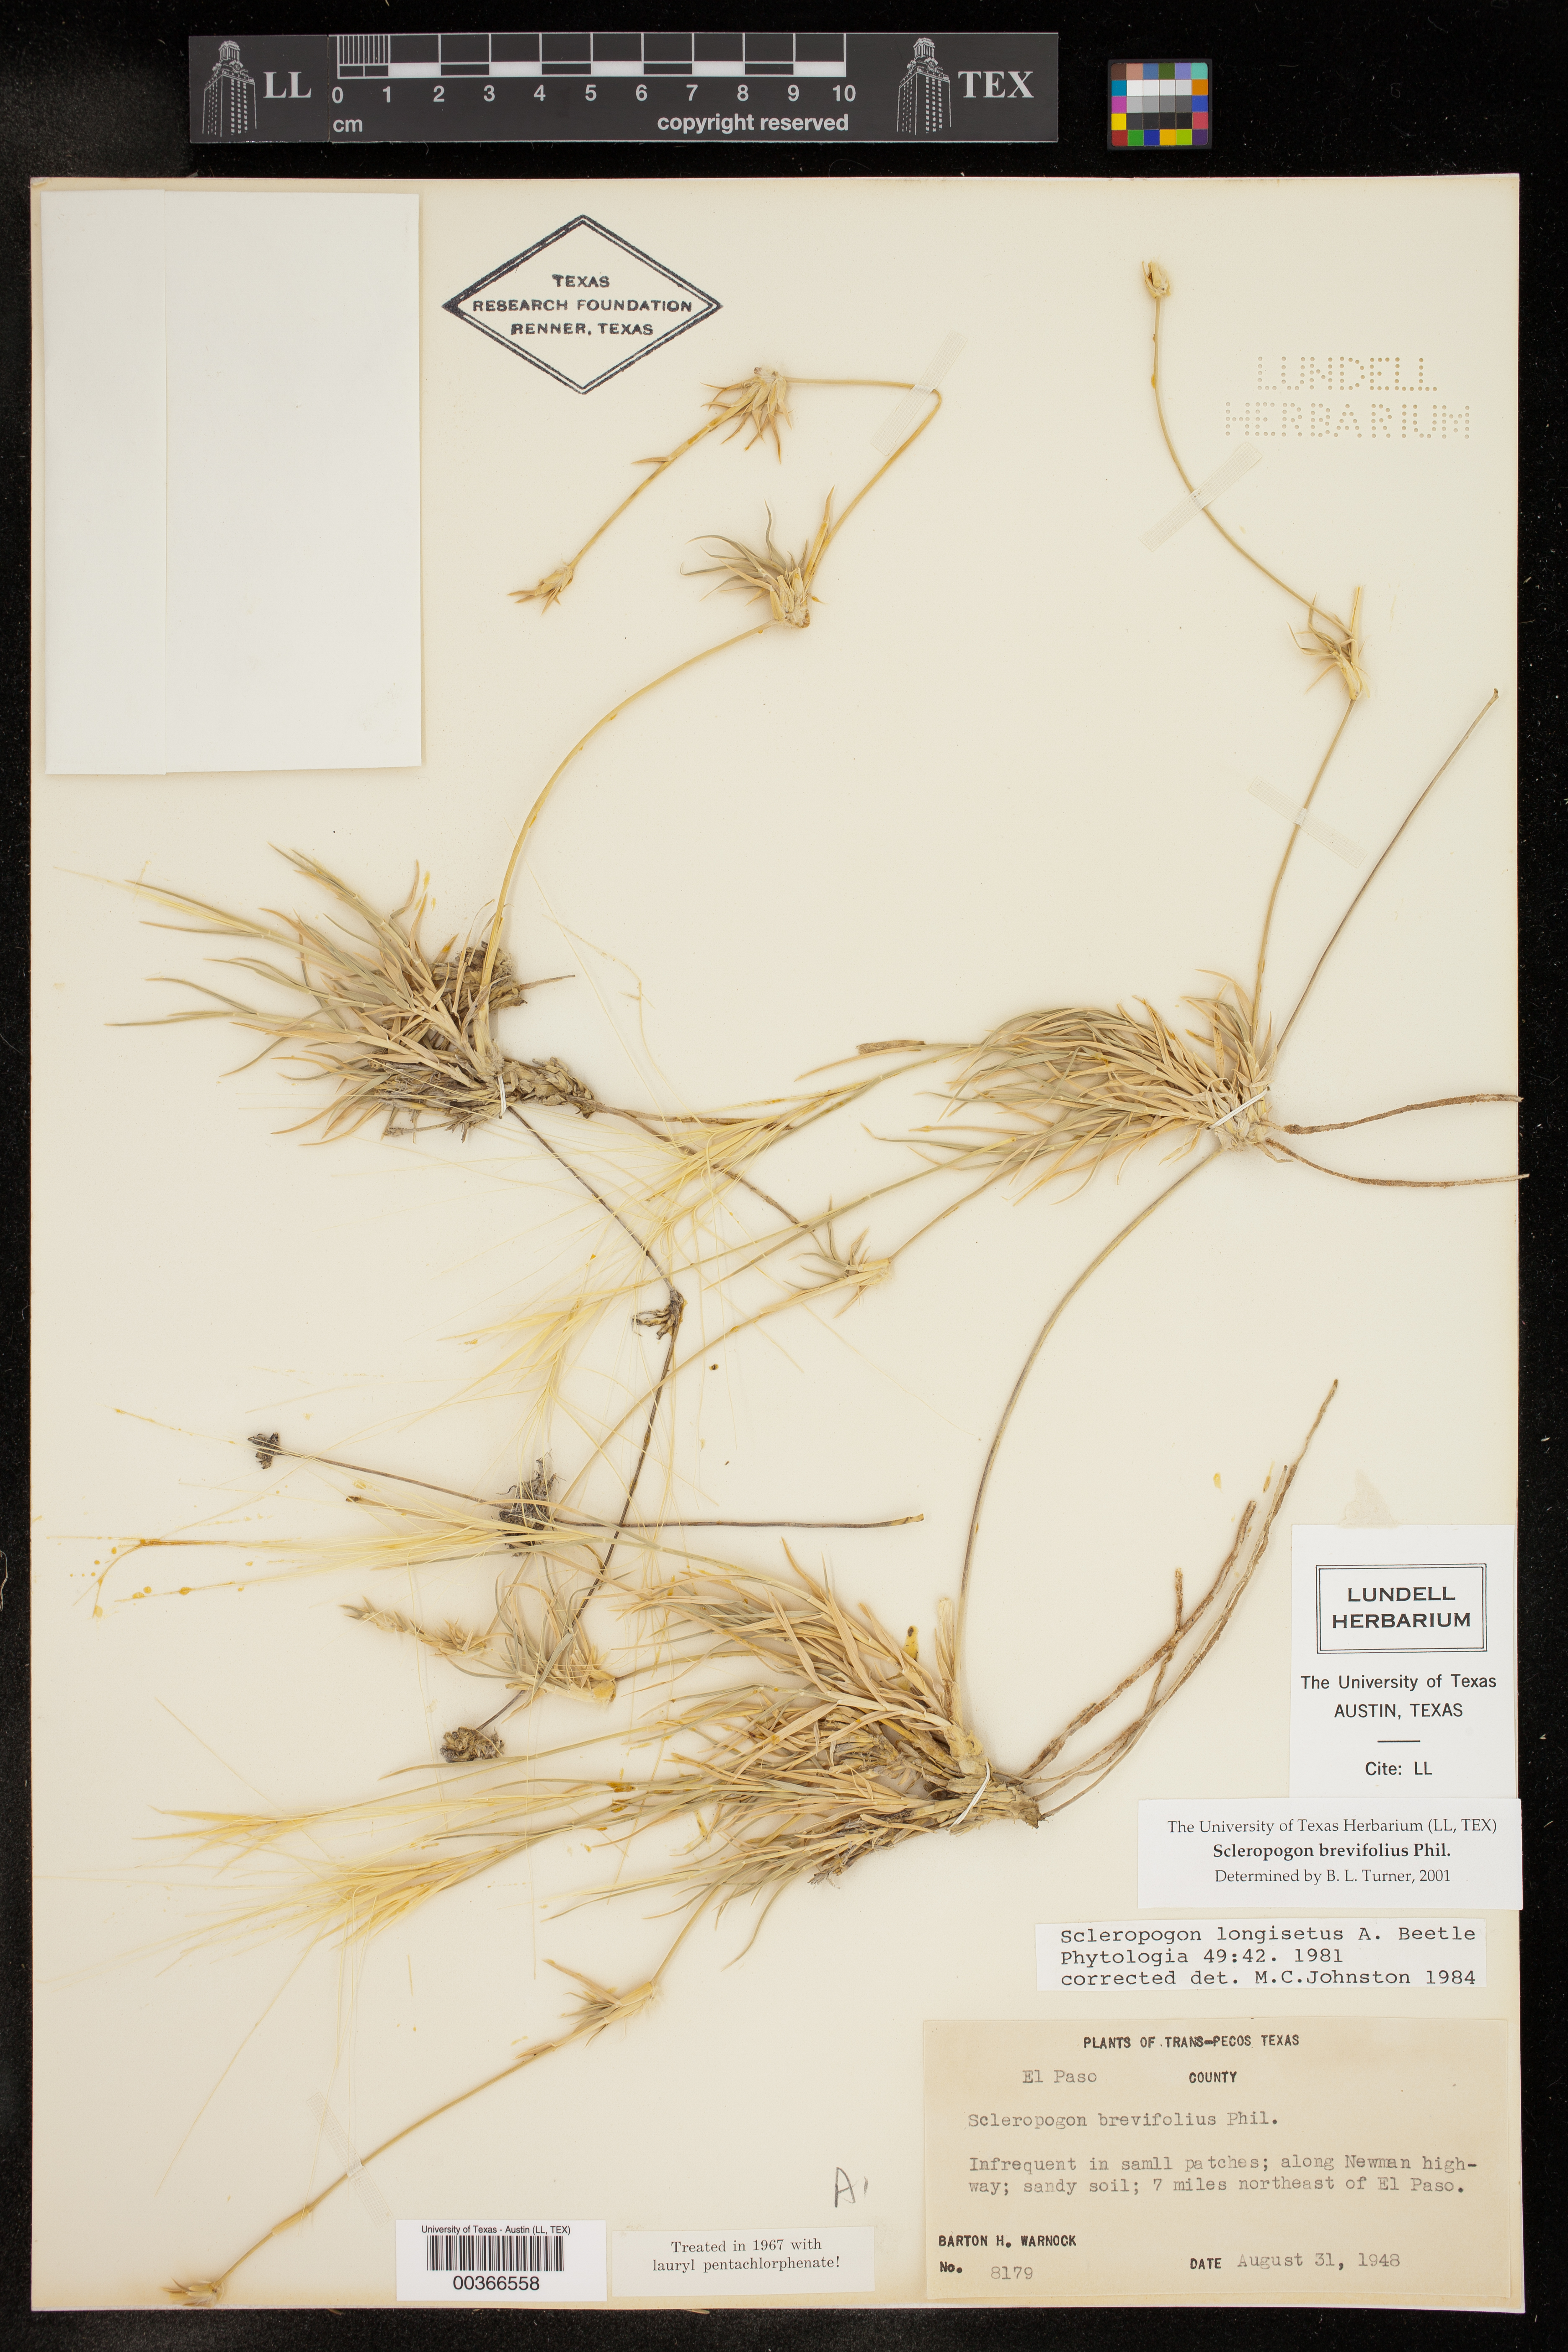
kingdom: Plantae
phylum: Tracheophyta
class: Liliopsida
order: Poales
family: Poaceae
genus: Scleropogon
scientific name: Scleropogon brevifolius
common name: Burro grass
